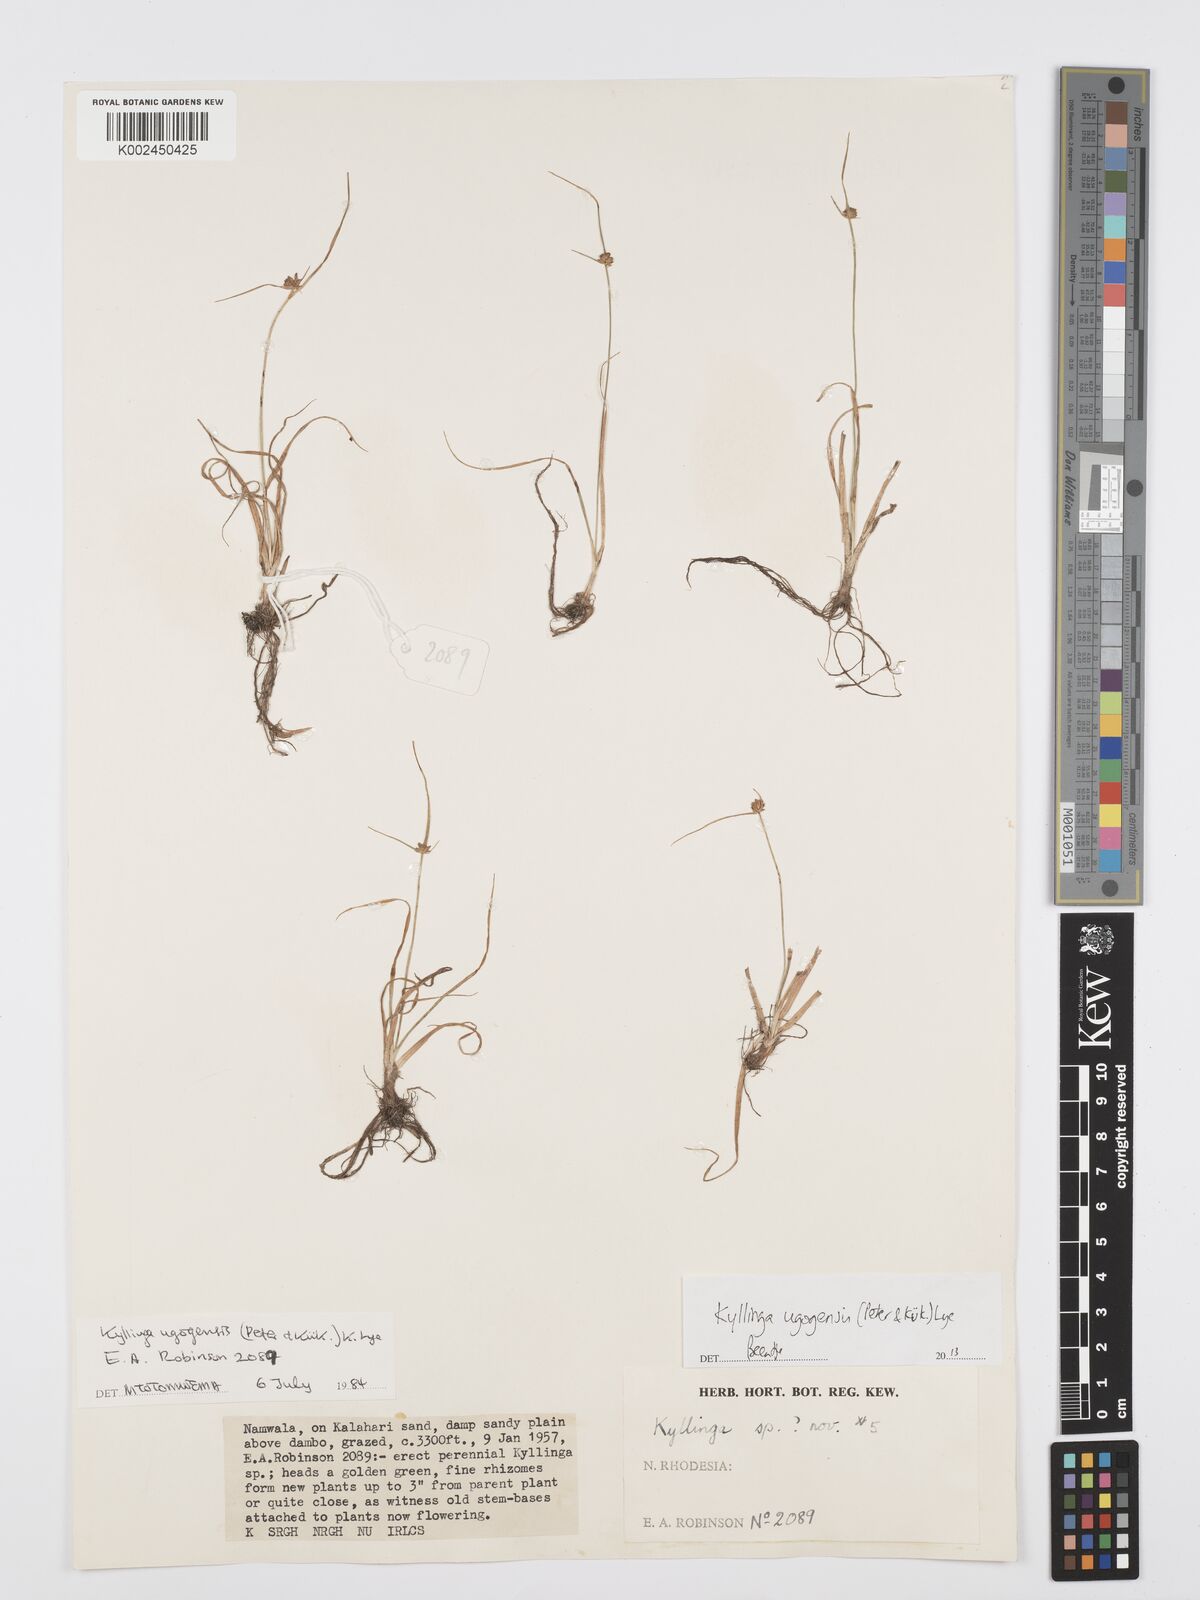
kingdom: Plantae
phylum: Tracheophyta
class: Liliopsida
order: Poales
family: Cyperaceae
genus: Cyperus
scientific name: Cyperus ugogensis
